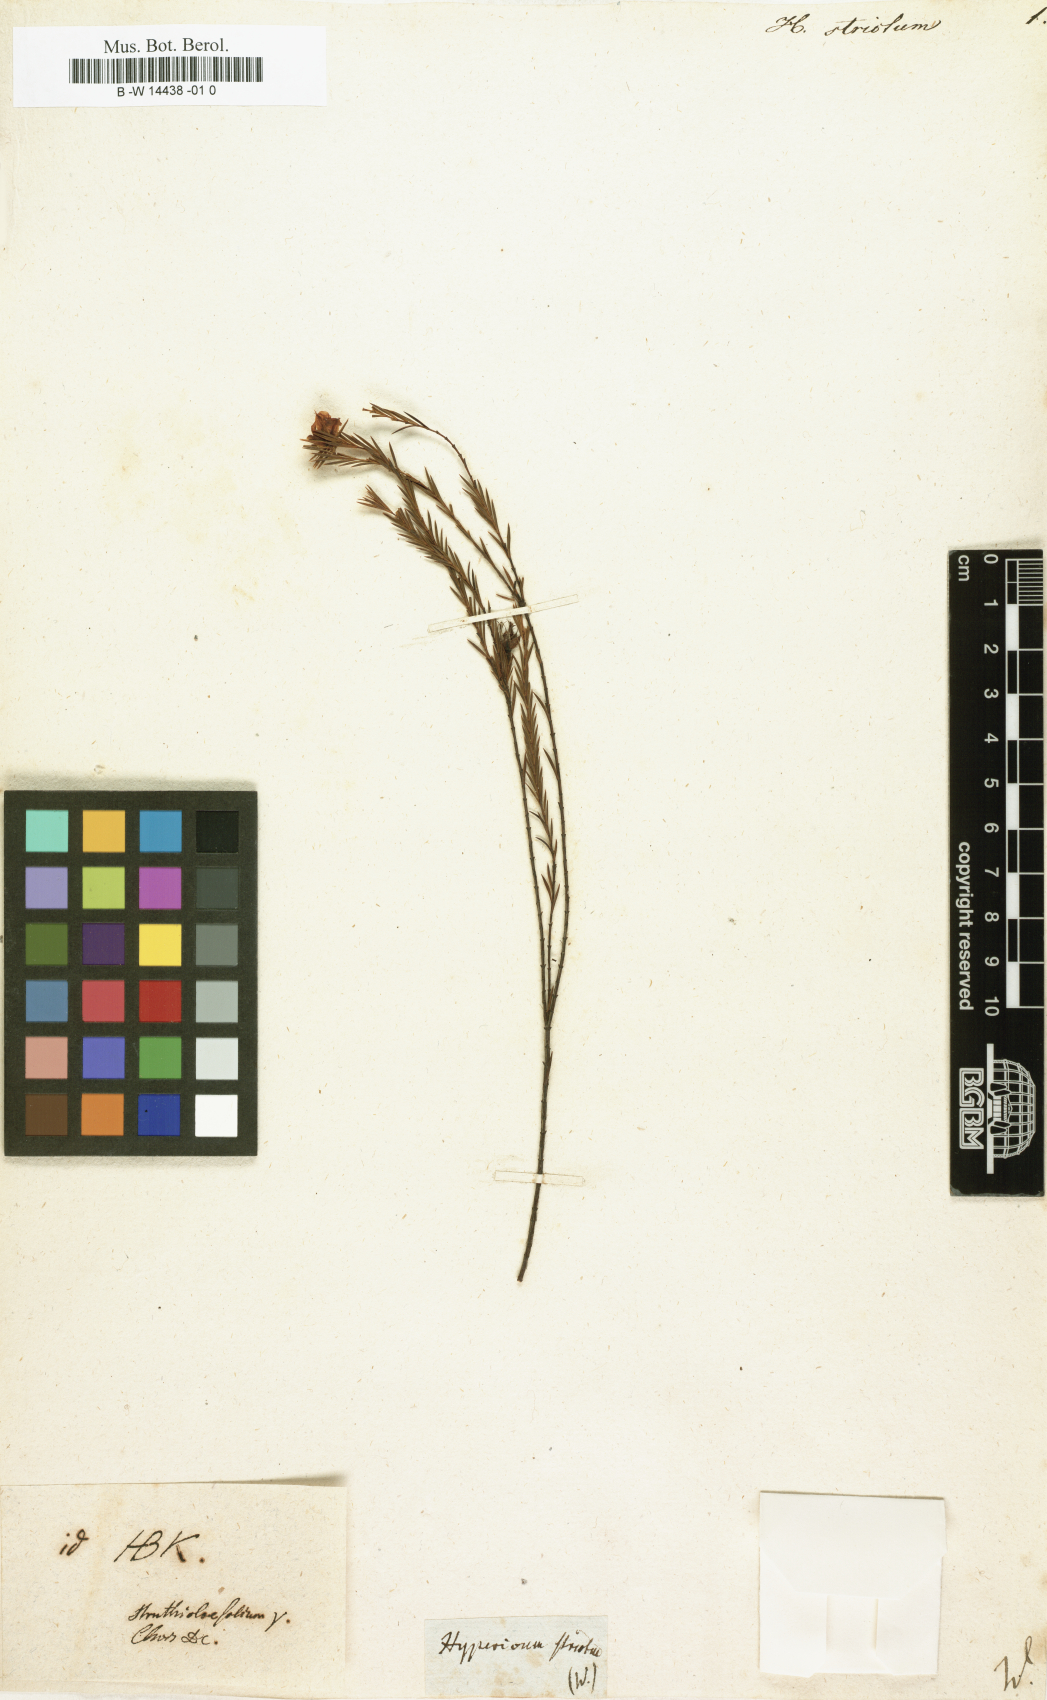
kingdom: Plantae
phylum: Tracheophyta
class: Magnoliopsida
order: Malpighiales
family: Hypericaceae
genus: Hypericum
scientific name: Hypericum strictum
